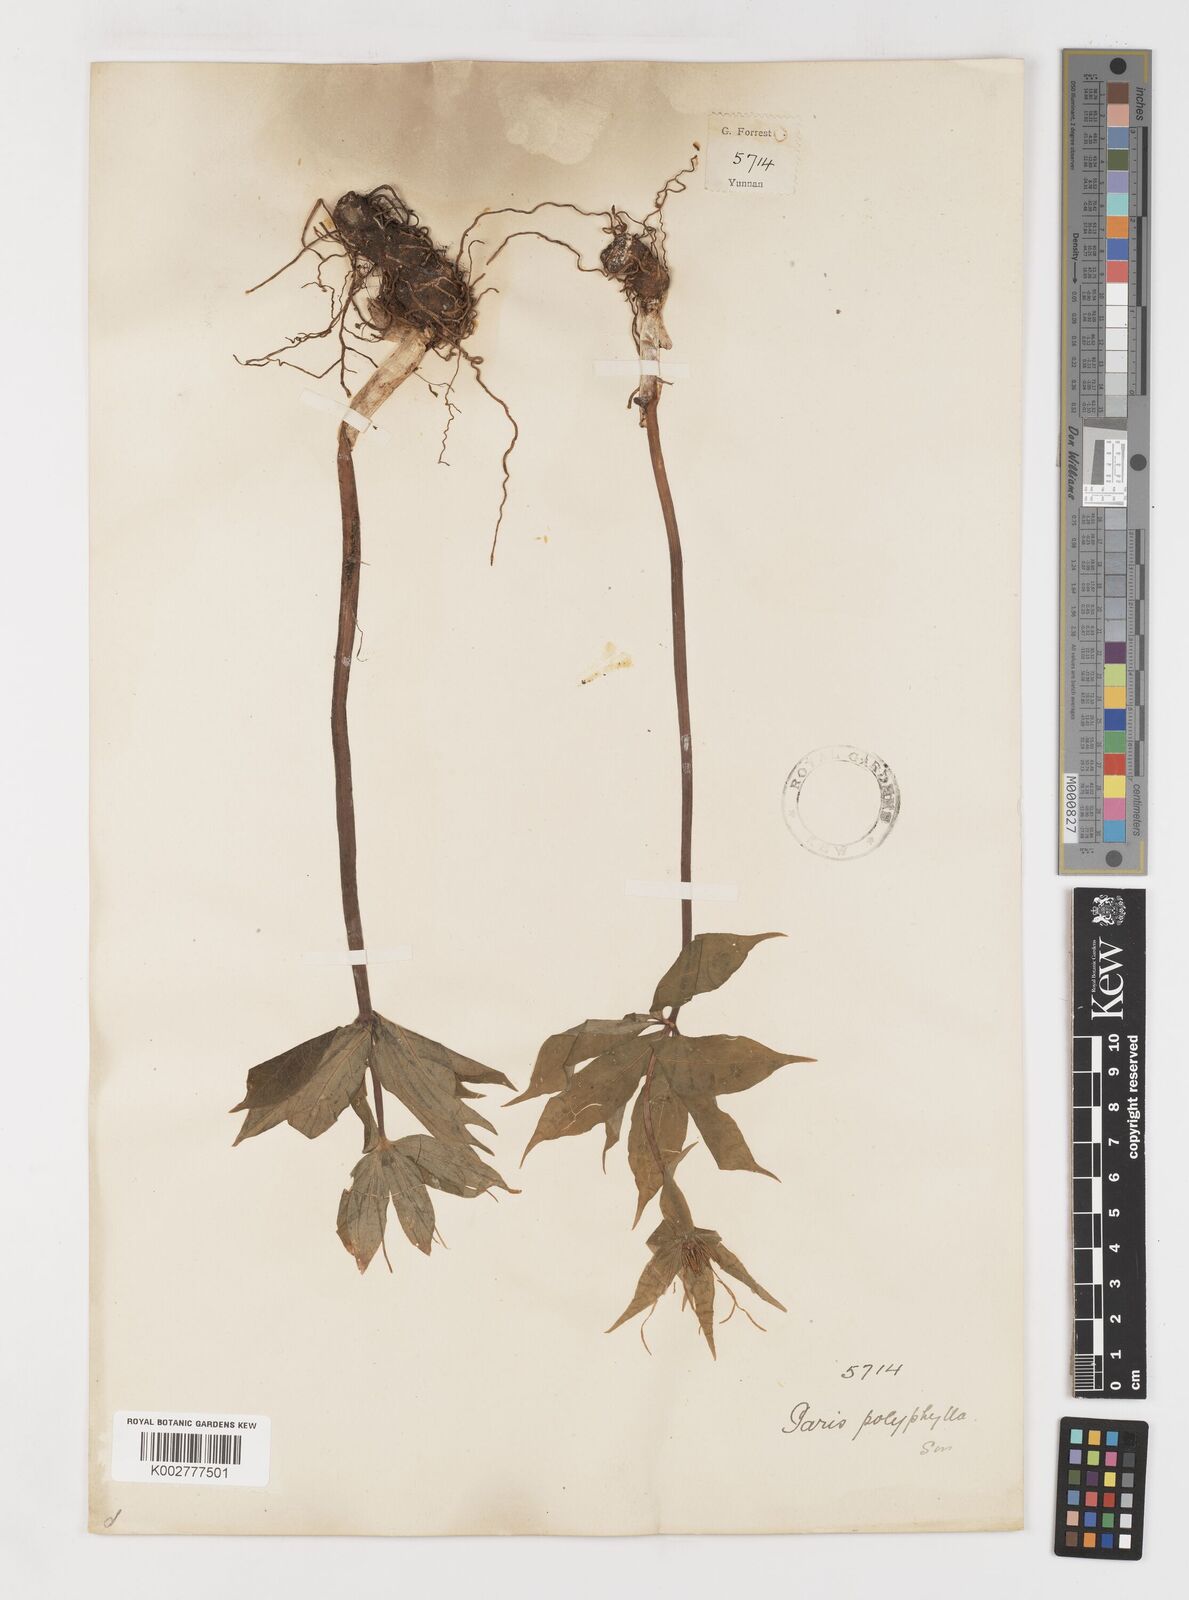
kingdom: Plantae
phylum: Tracheophyta
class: Liliopsida
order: Liliales
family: Melanthiaceae
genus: Paris
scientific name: Paris mairei
